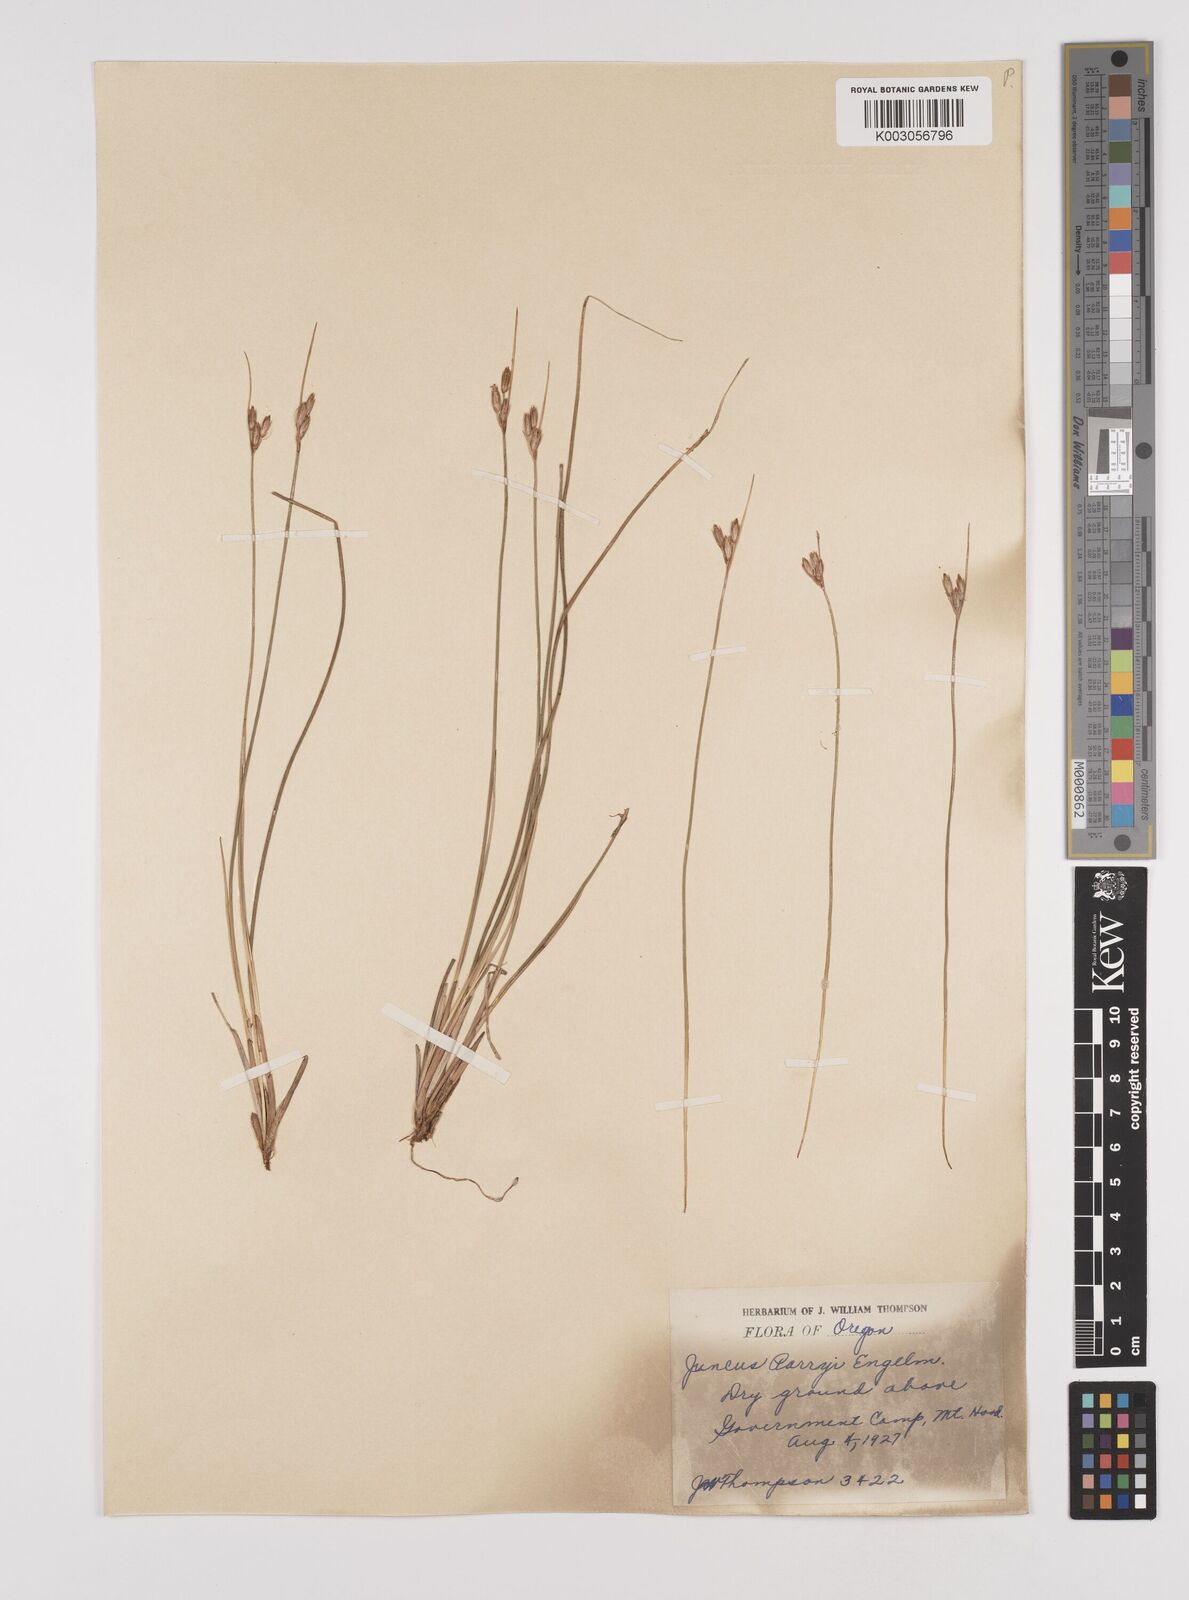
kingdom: Plantae
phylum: Tracheophyta
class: Liliopsida
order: Poales
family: Juncaceae
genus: Juncus
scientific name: Juncus parryi
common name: Parry's rush
